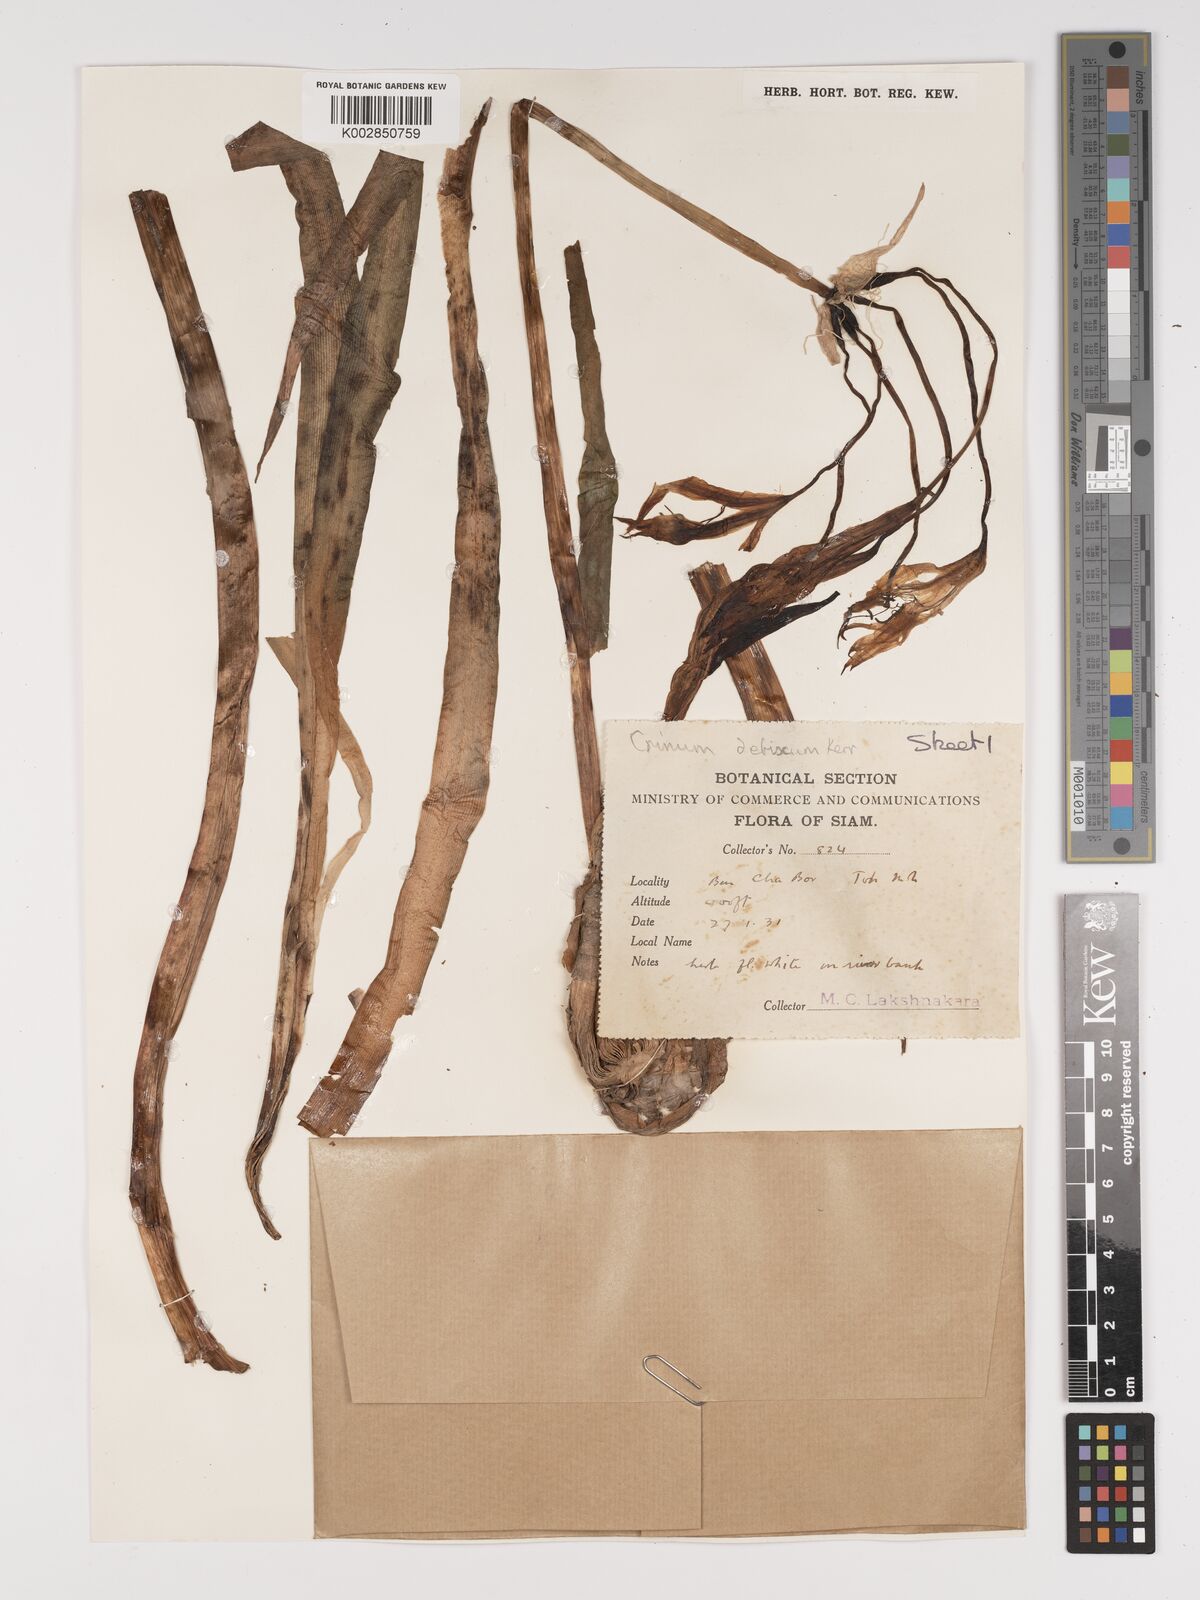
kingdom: Plantae
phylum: Tracheophyta
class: Liliopsida
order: Asparagales
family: Amaryllidaceae
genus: Crinum
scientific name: Crinum defixum
